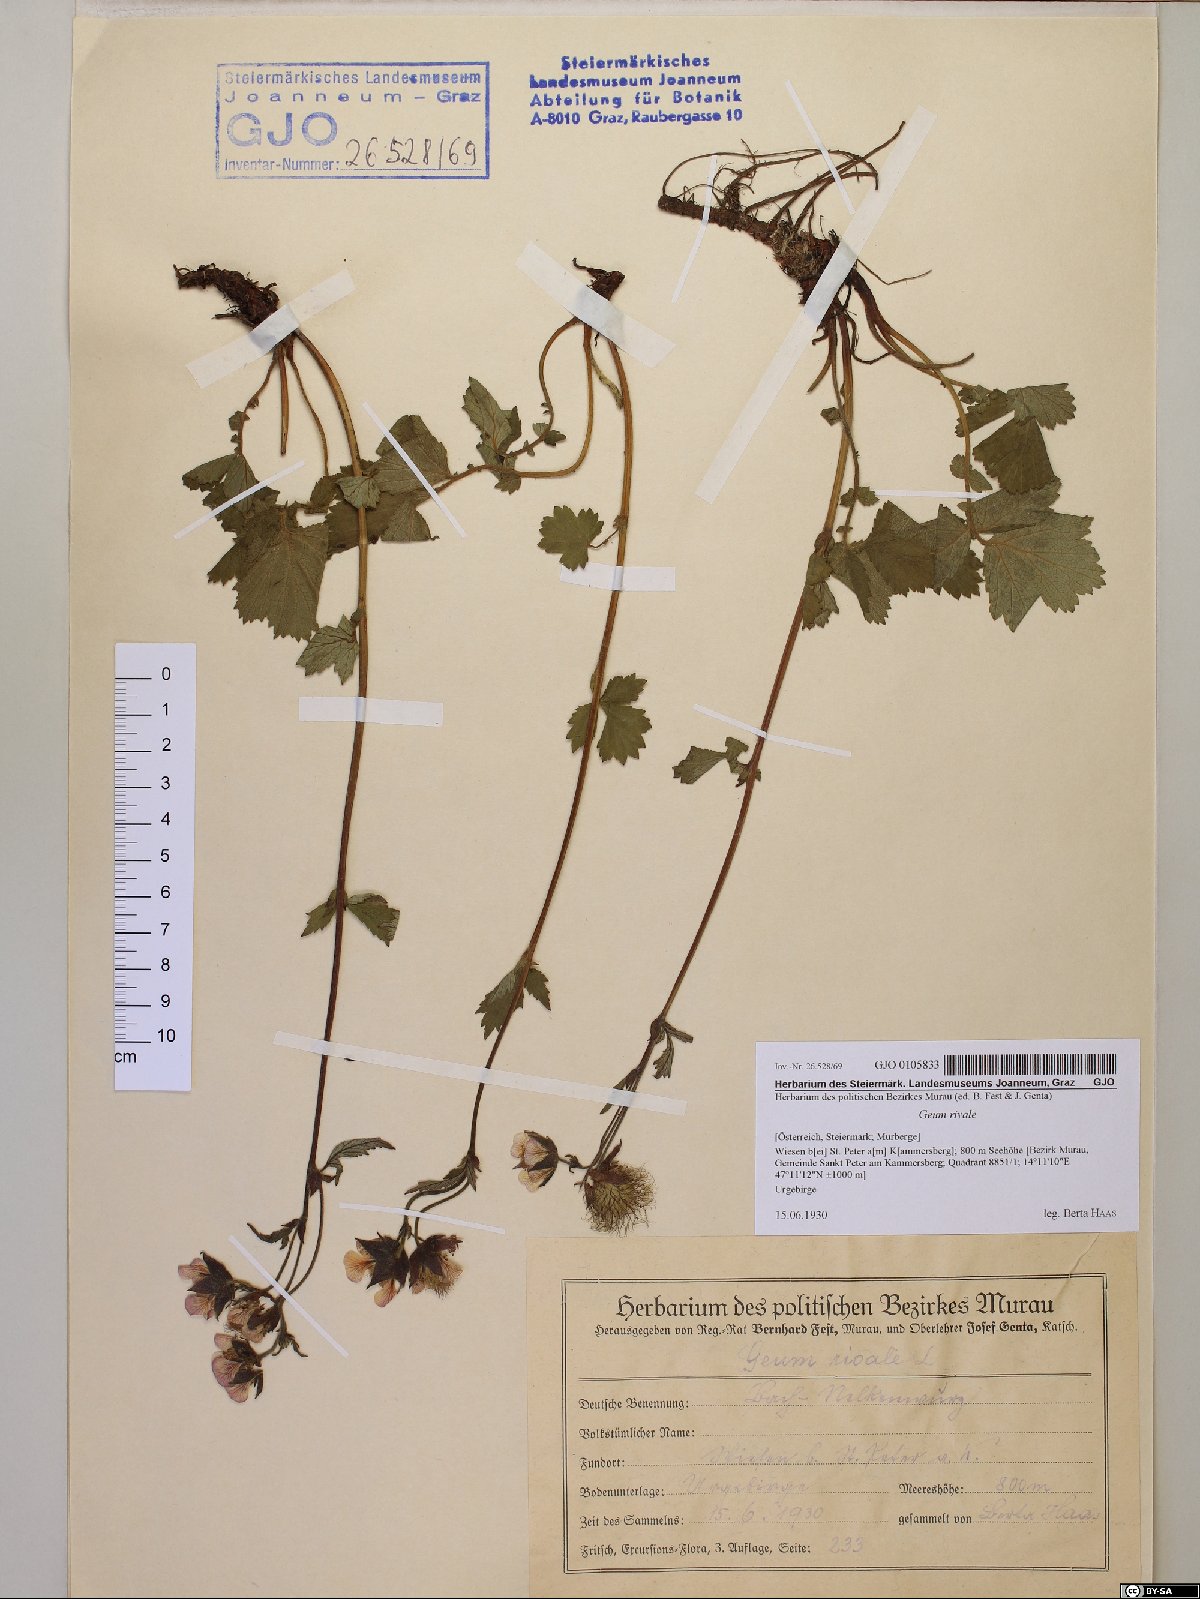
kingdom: Plantae
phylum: Tracheophyta
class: Magnoliopsida
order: Rosales
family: Rosaceae
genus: Geum
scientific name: Geum rivale
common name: Water avens
